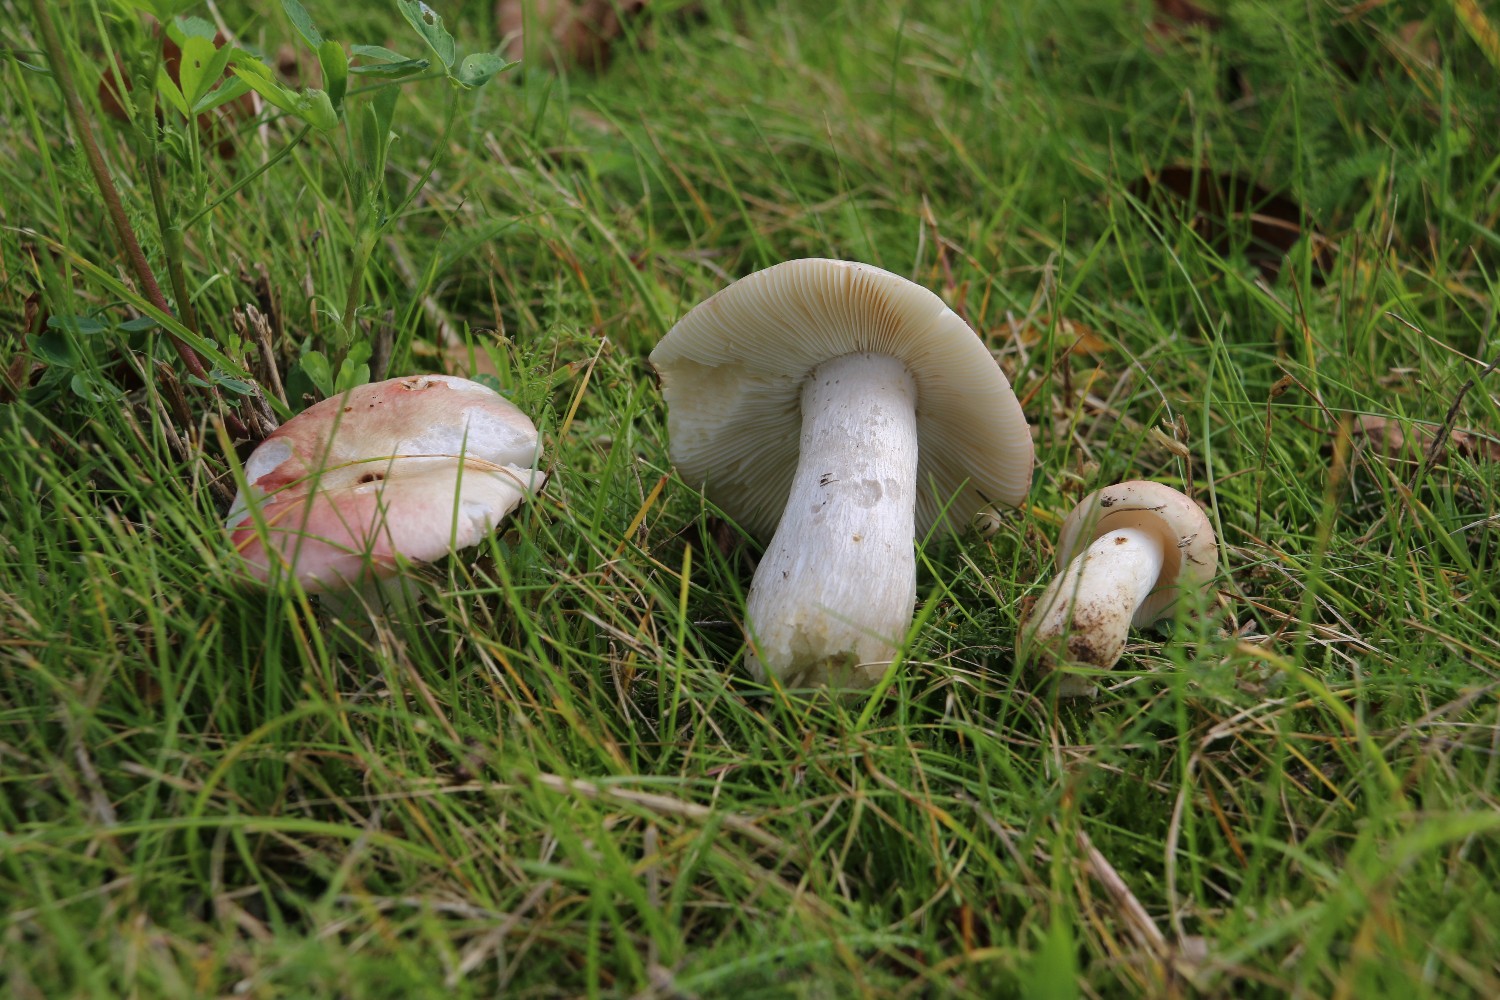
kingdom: Fungi
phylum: Basidiomycota
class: Agaricomycetes
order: Russulales
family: Russulaceae
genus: Russula
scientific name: Russula depallens
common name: falmende skørhat
